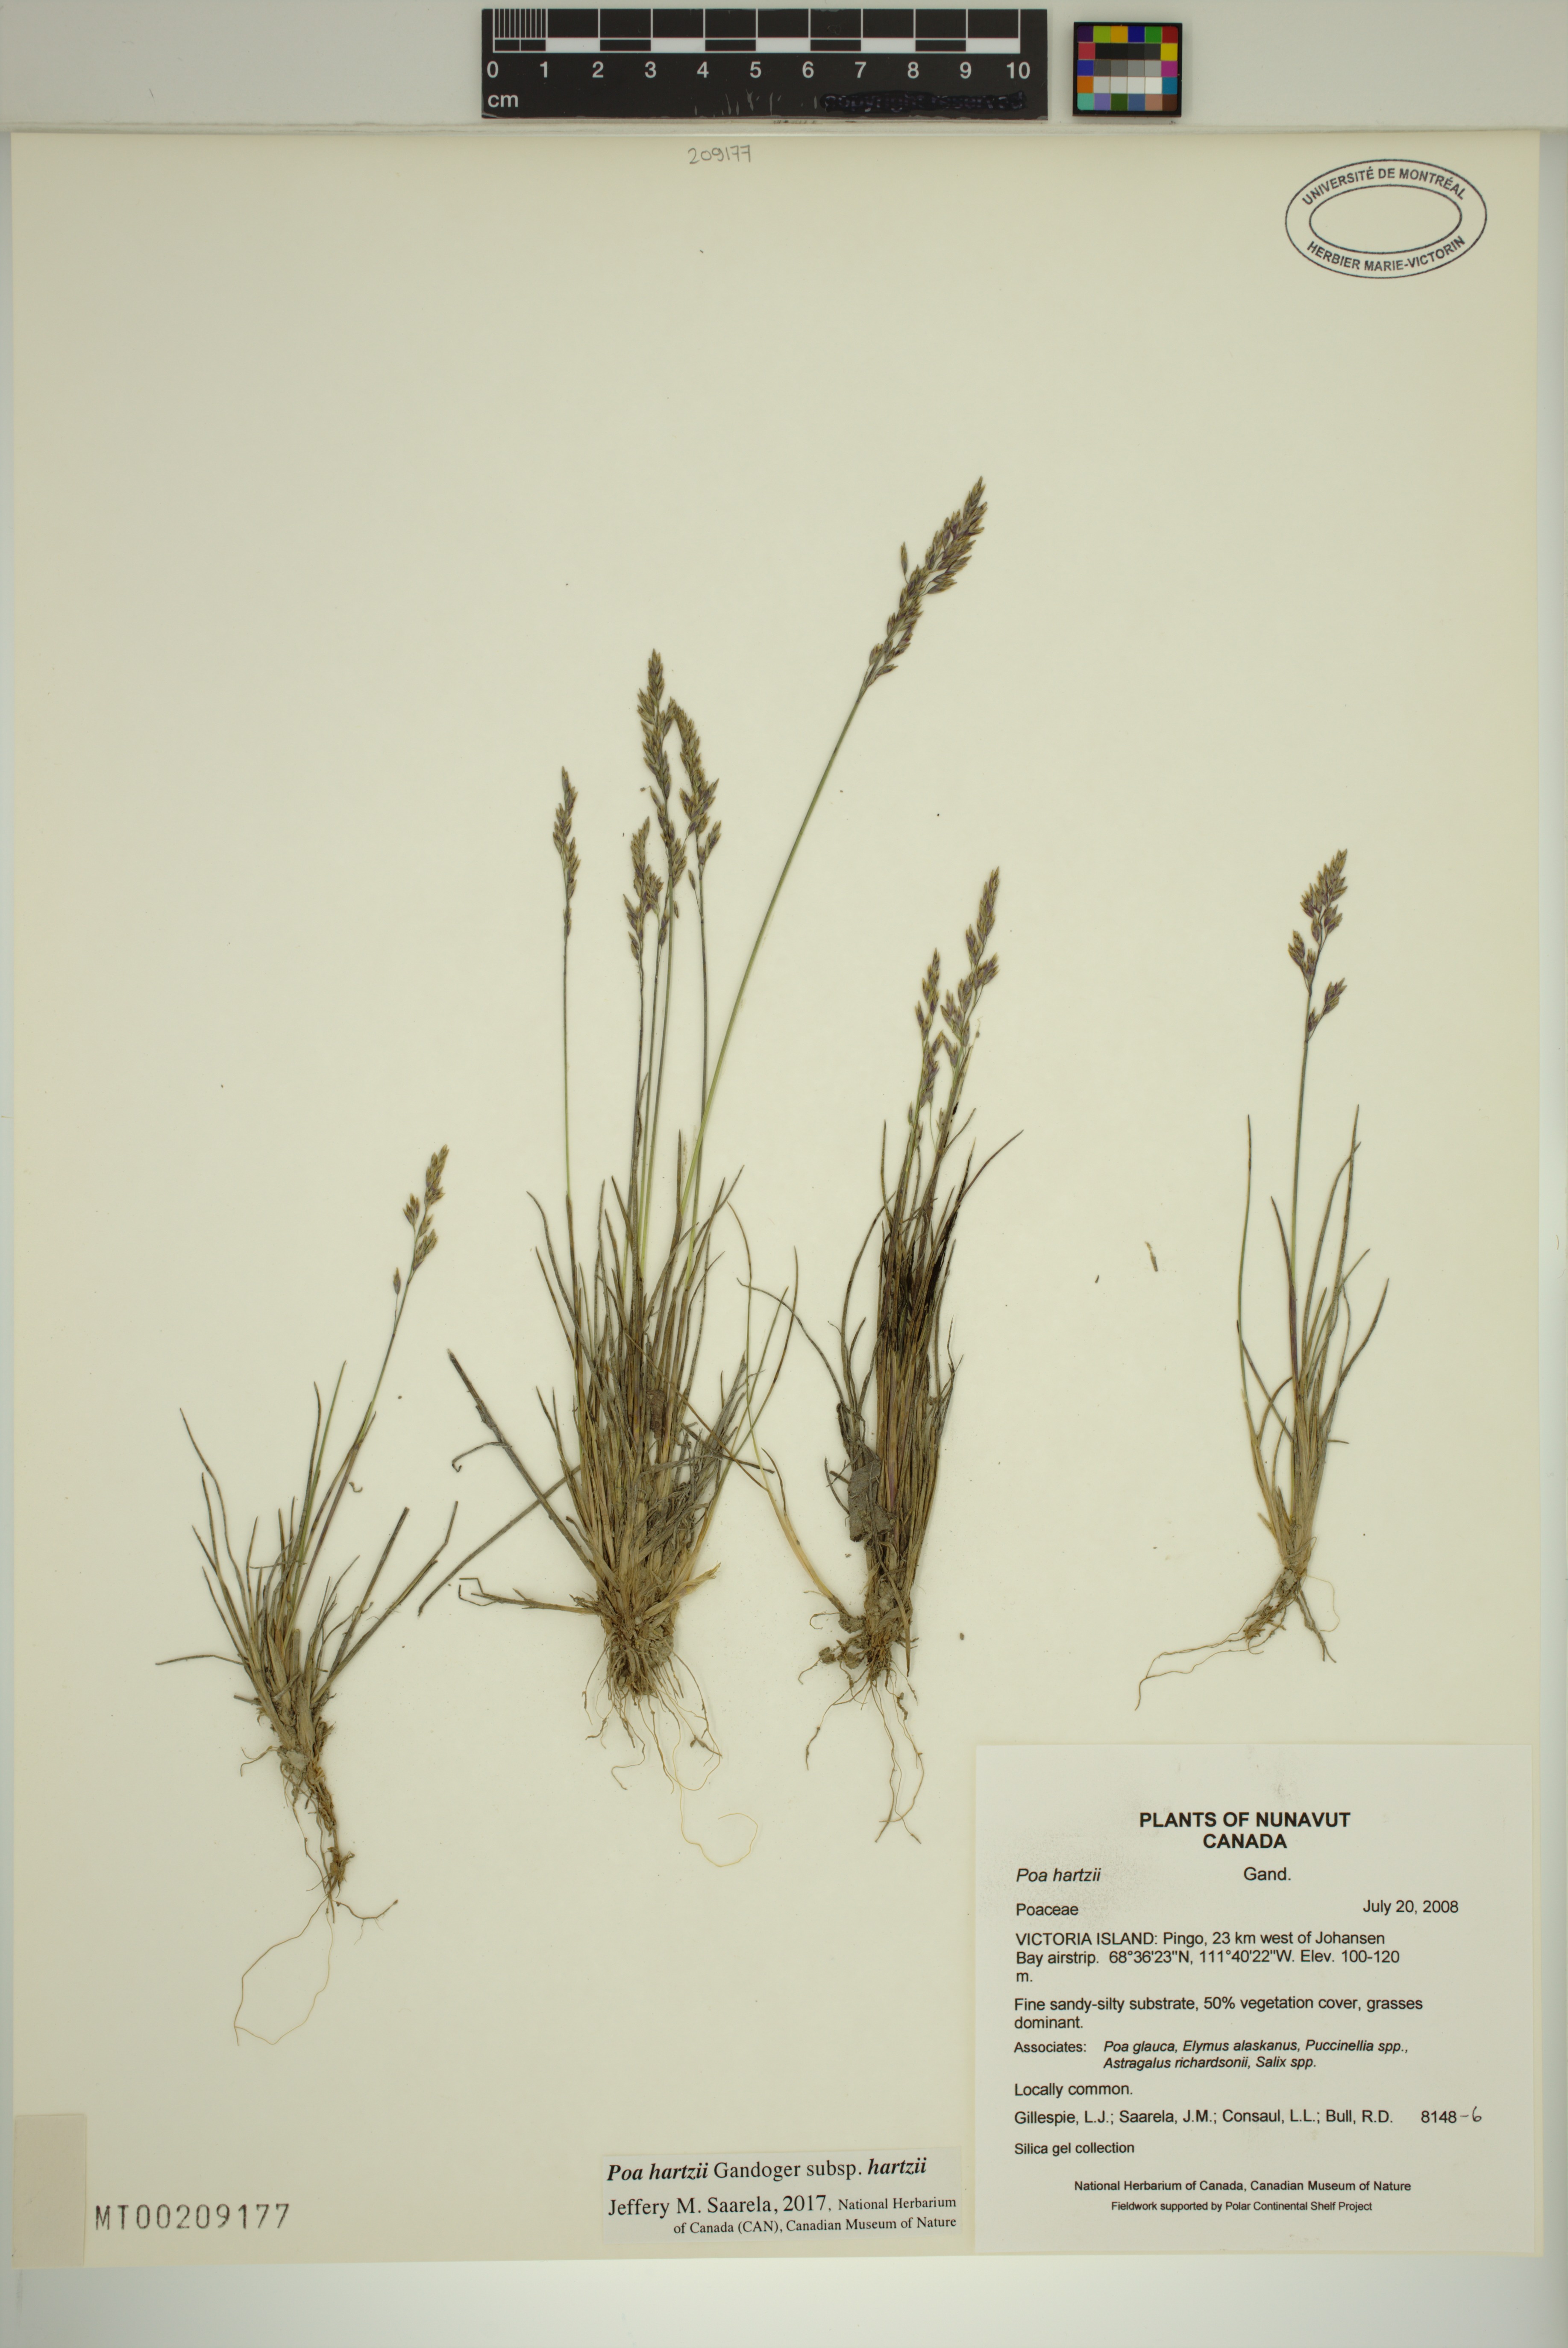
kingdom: Plantae
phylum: Tracheophyta
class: Liliopsida
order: Poales
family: Poaceae
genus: Poa
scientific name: Poa hartzii
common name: Hartz's bluegrass
